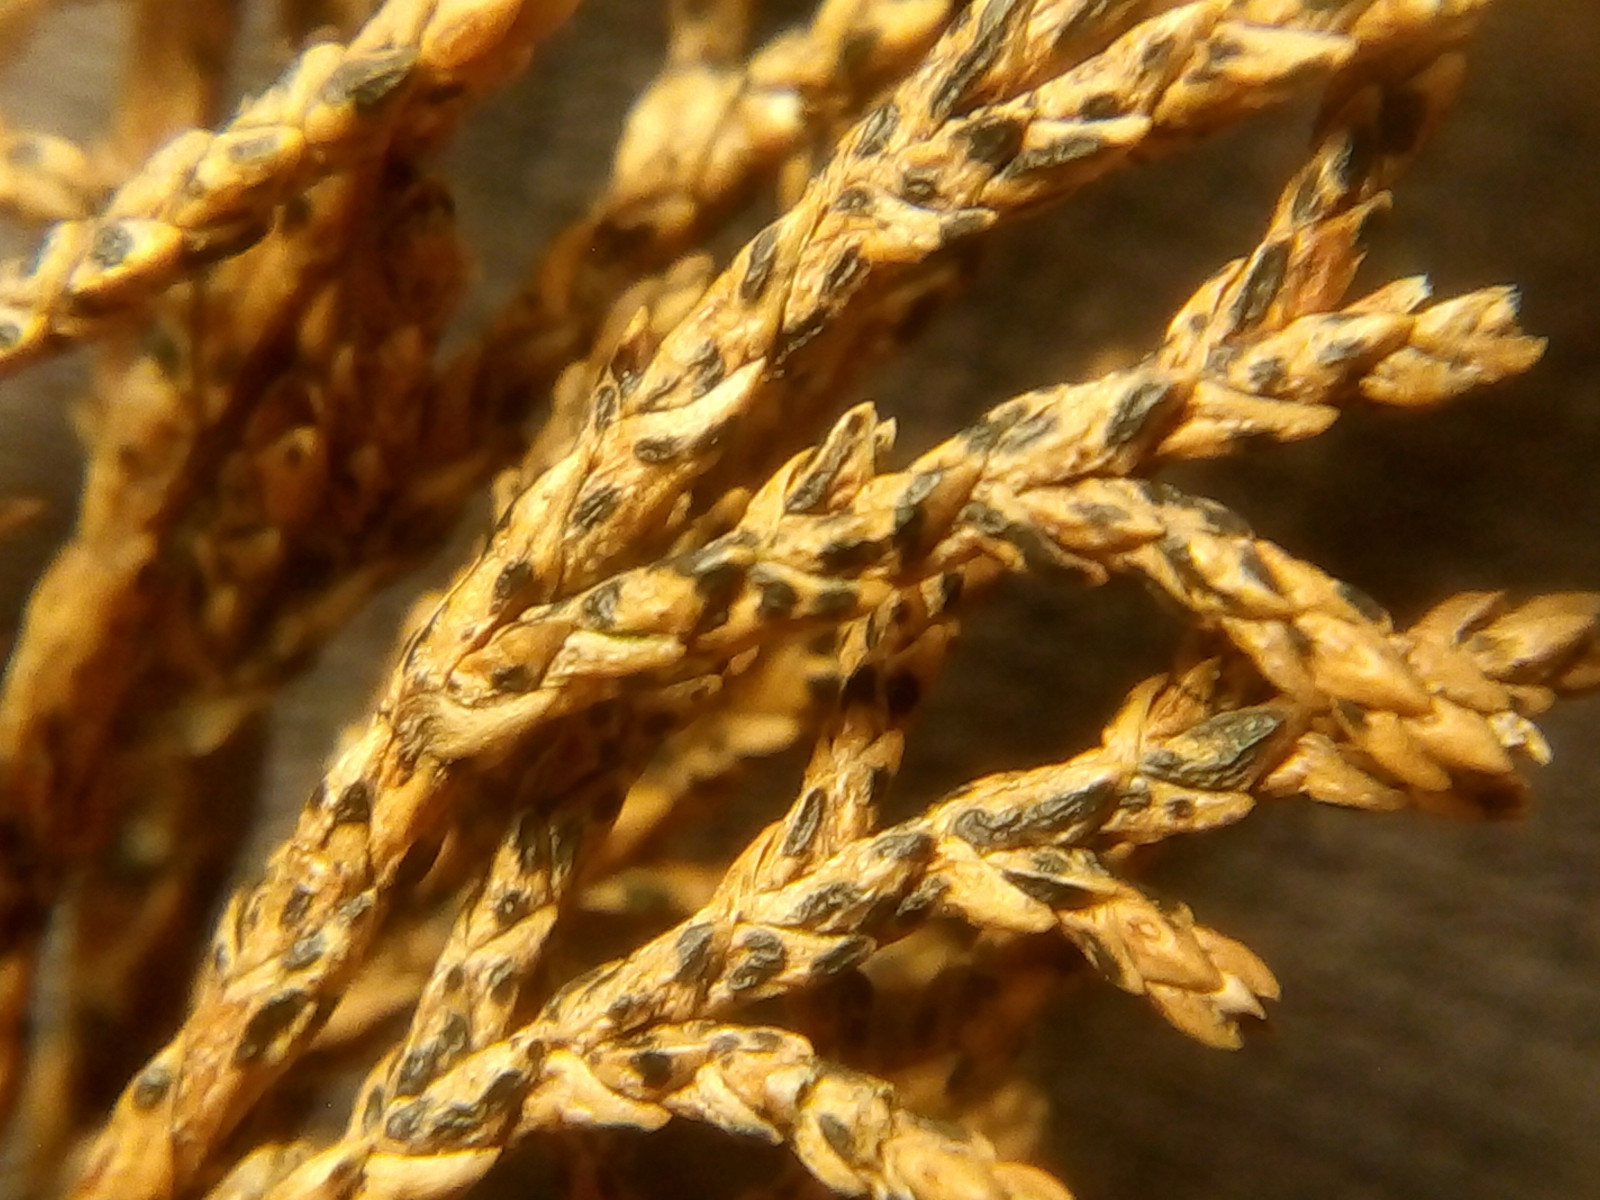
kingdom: Fungi
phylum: Ascomycota
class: Leotiomycetes
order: Rhytismatales
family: Rhytismataceae
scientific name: Rhytismataceae
